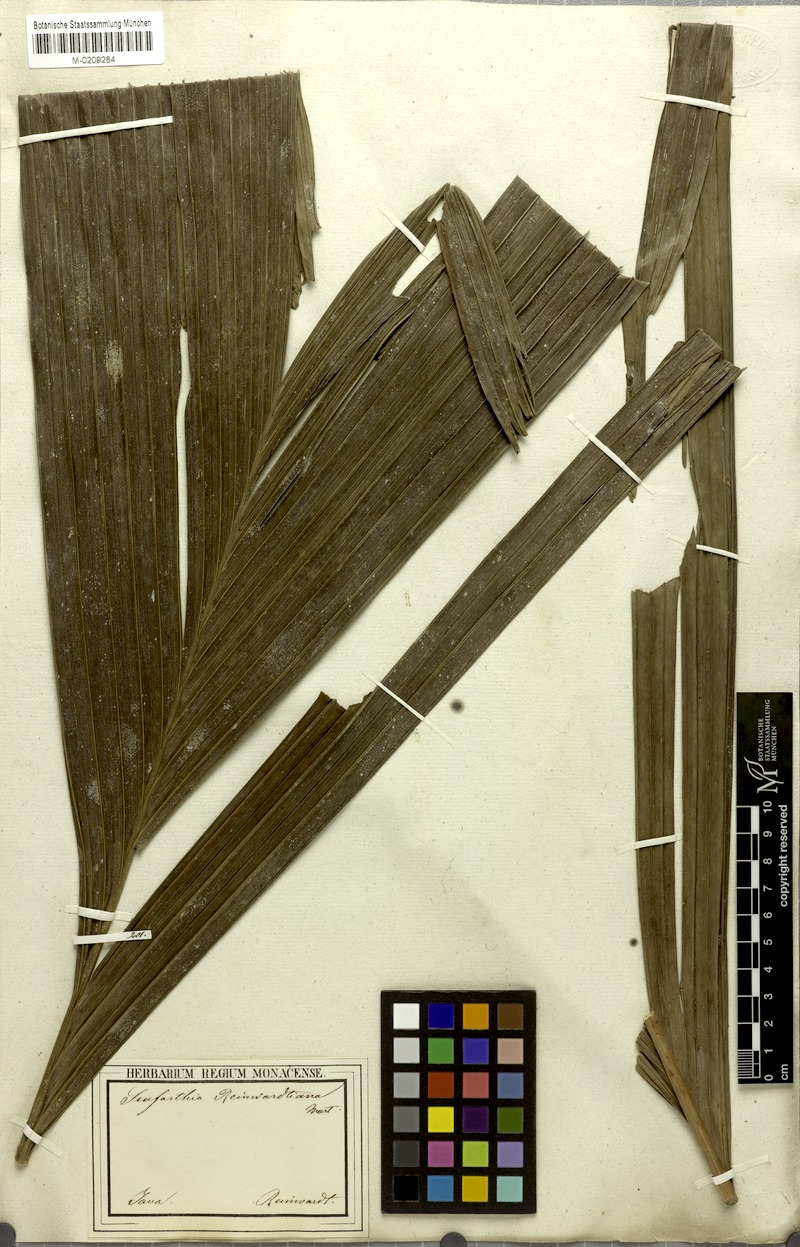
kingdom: Plantae
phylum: Tracheophyta
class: Liliopsida
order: Arecales
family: Arecaceae
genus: Pinanga
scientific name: Pinanga coronata
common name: Ivory cane palm
